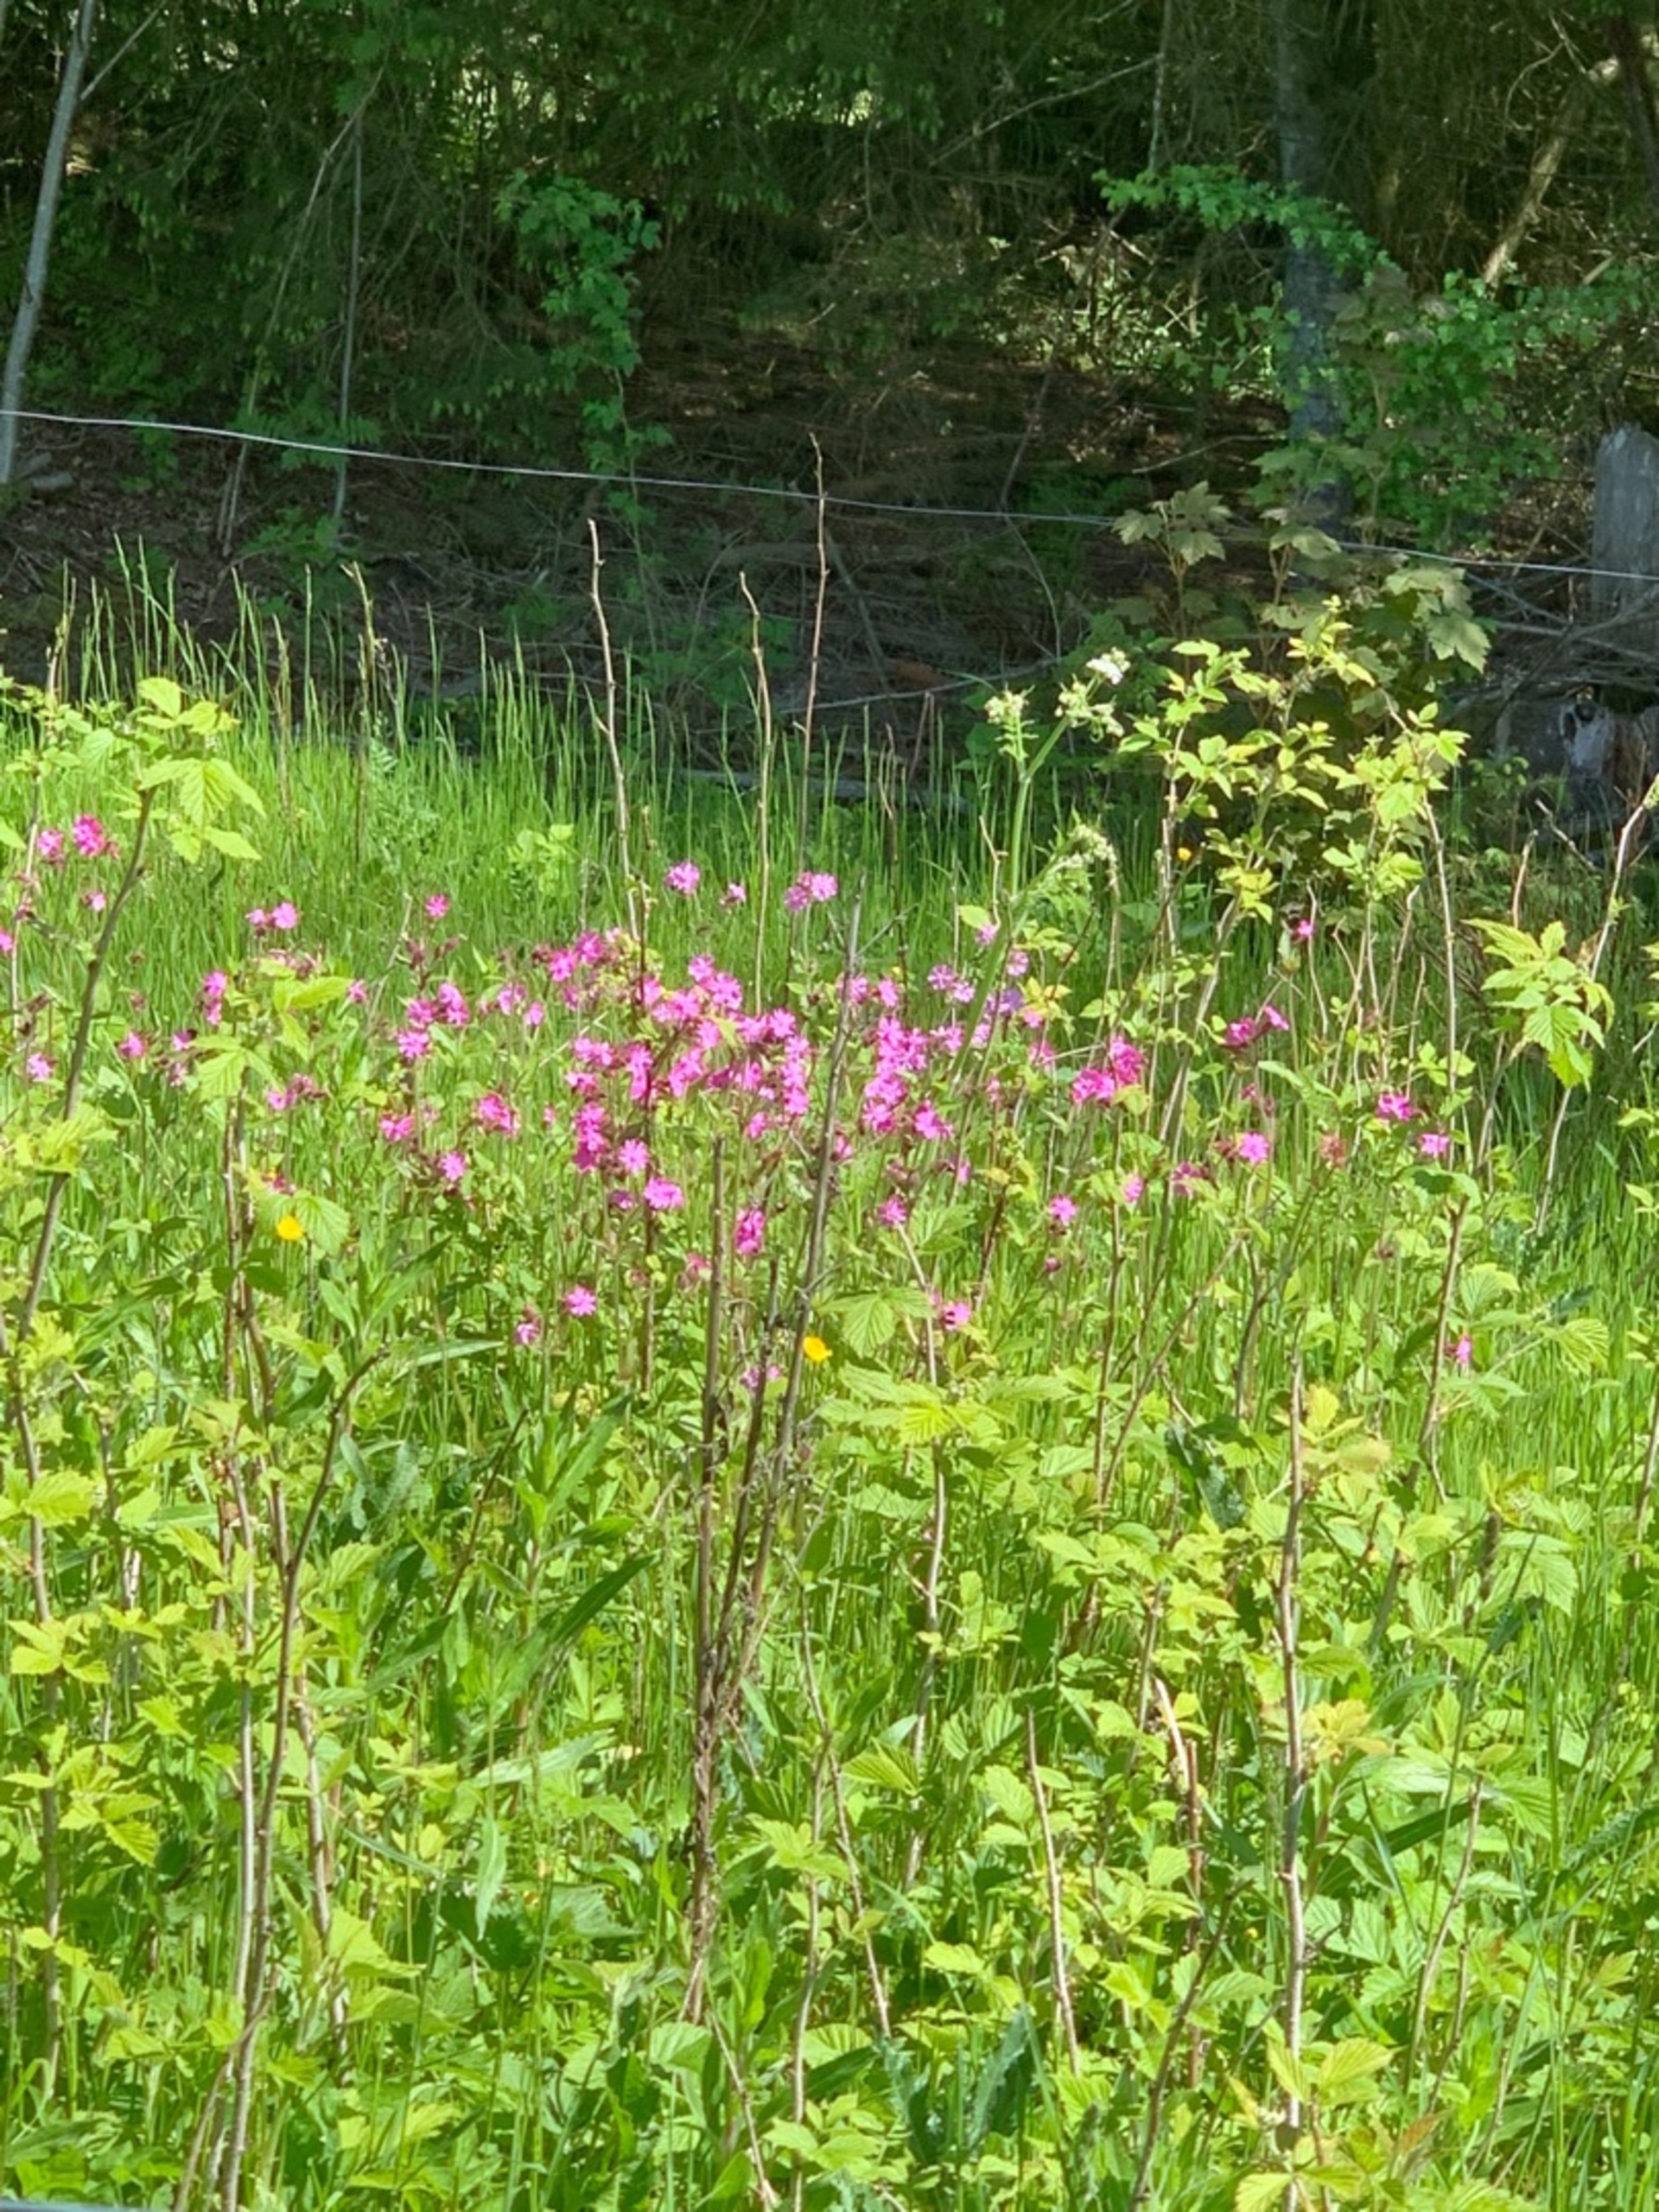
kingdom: Plantae
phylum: Tracheophyta
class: Magnoliopsida
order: Caryophyllales
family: Caryophyllaceae
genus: Silene
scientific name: Silene dioica
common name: Dagpragtstjerne
